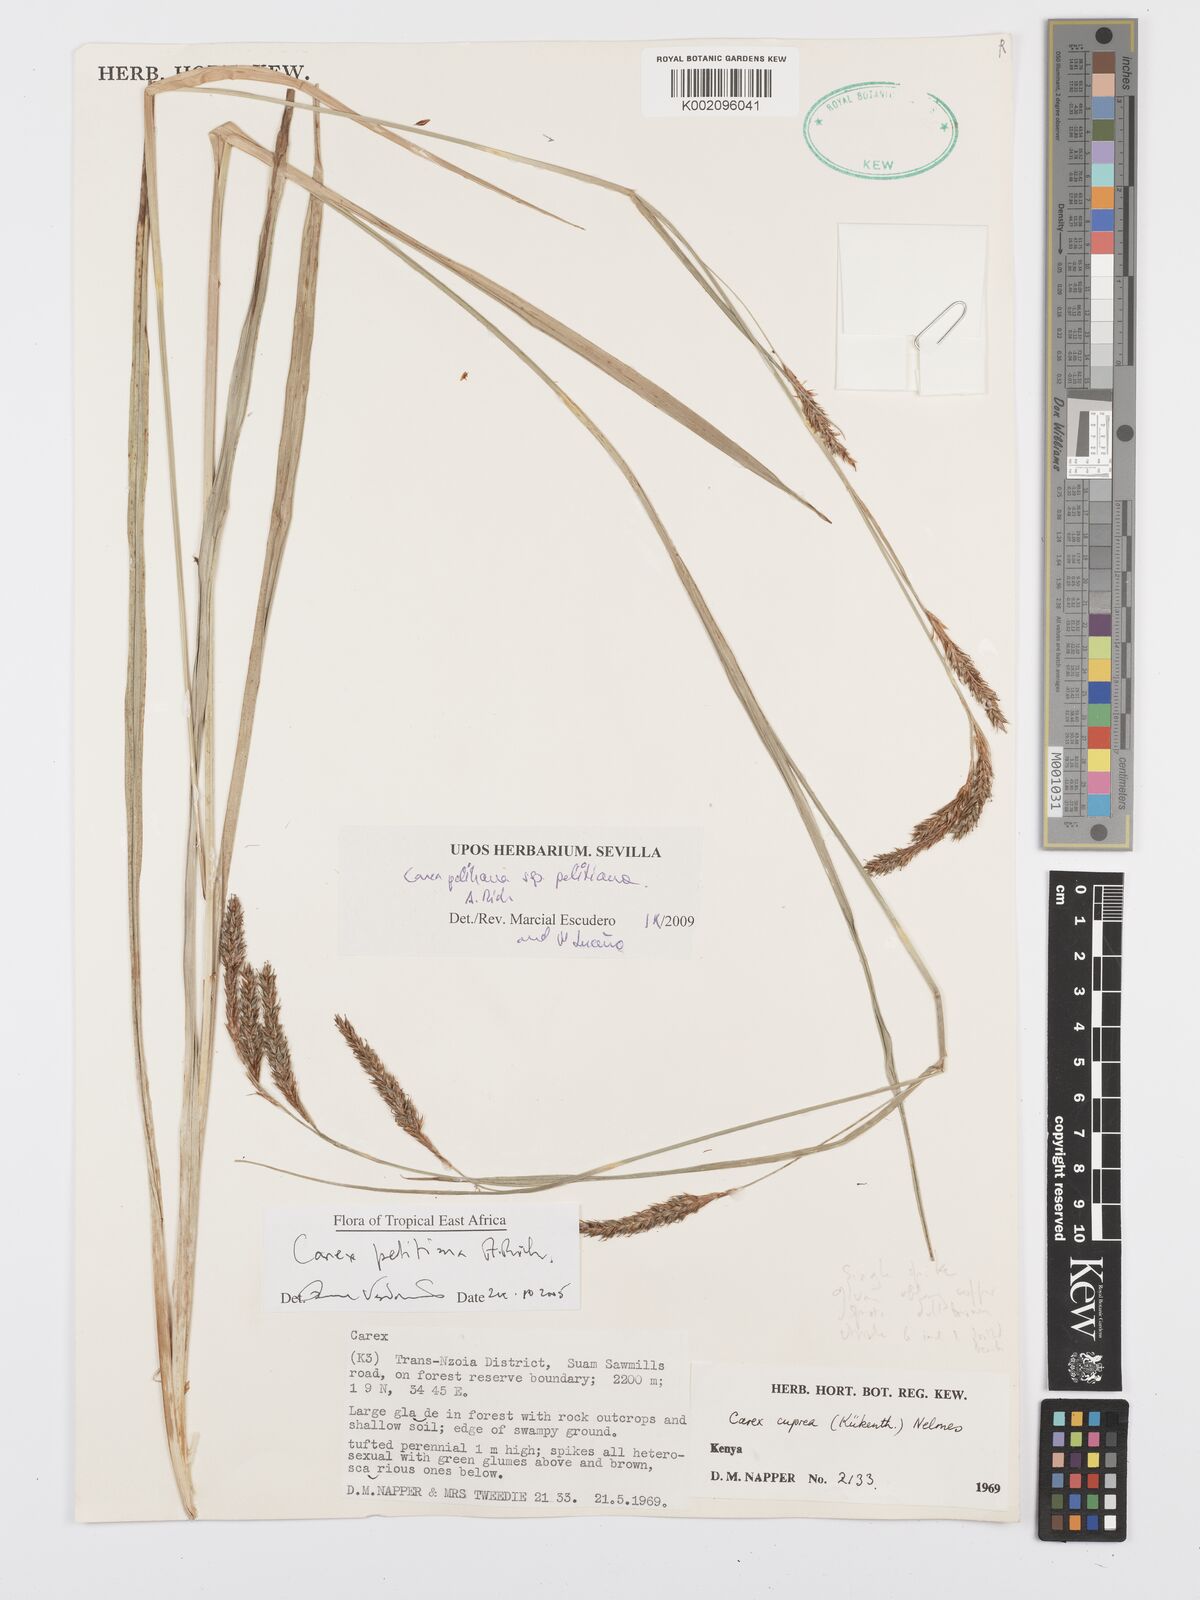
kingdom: Plantae
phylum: Tracheophyta
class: Liliopsida
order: Poales
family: Cyperaceae
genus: Carex
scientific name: Carex petitiana
